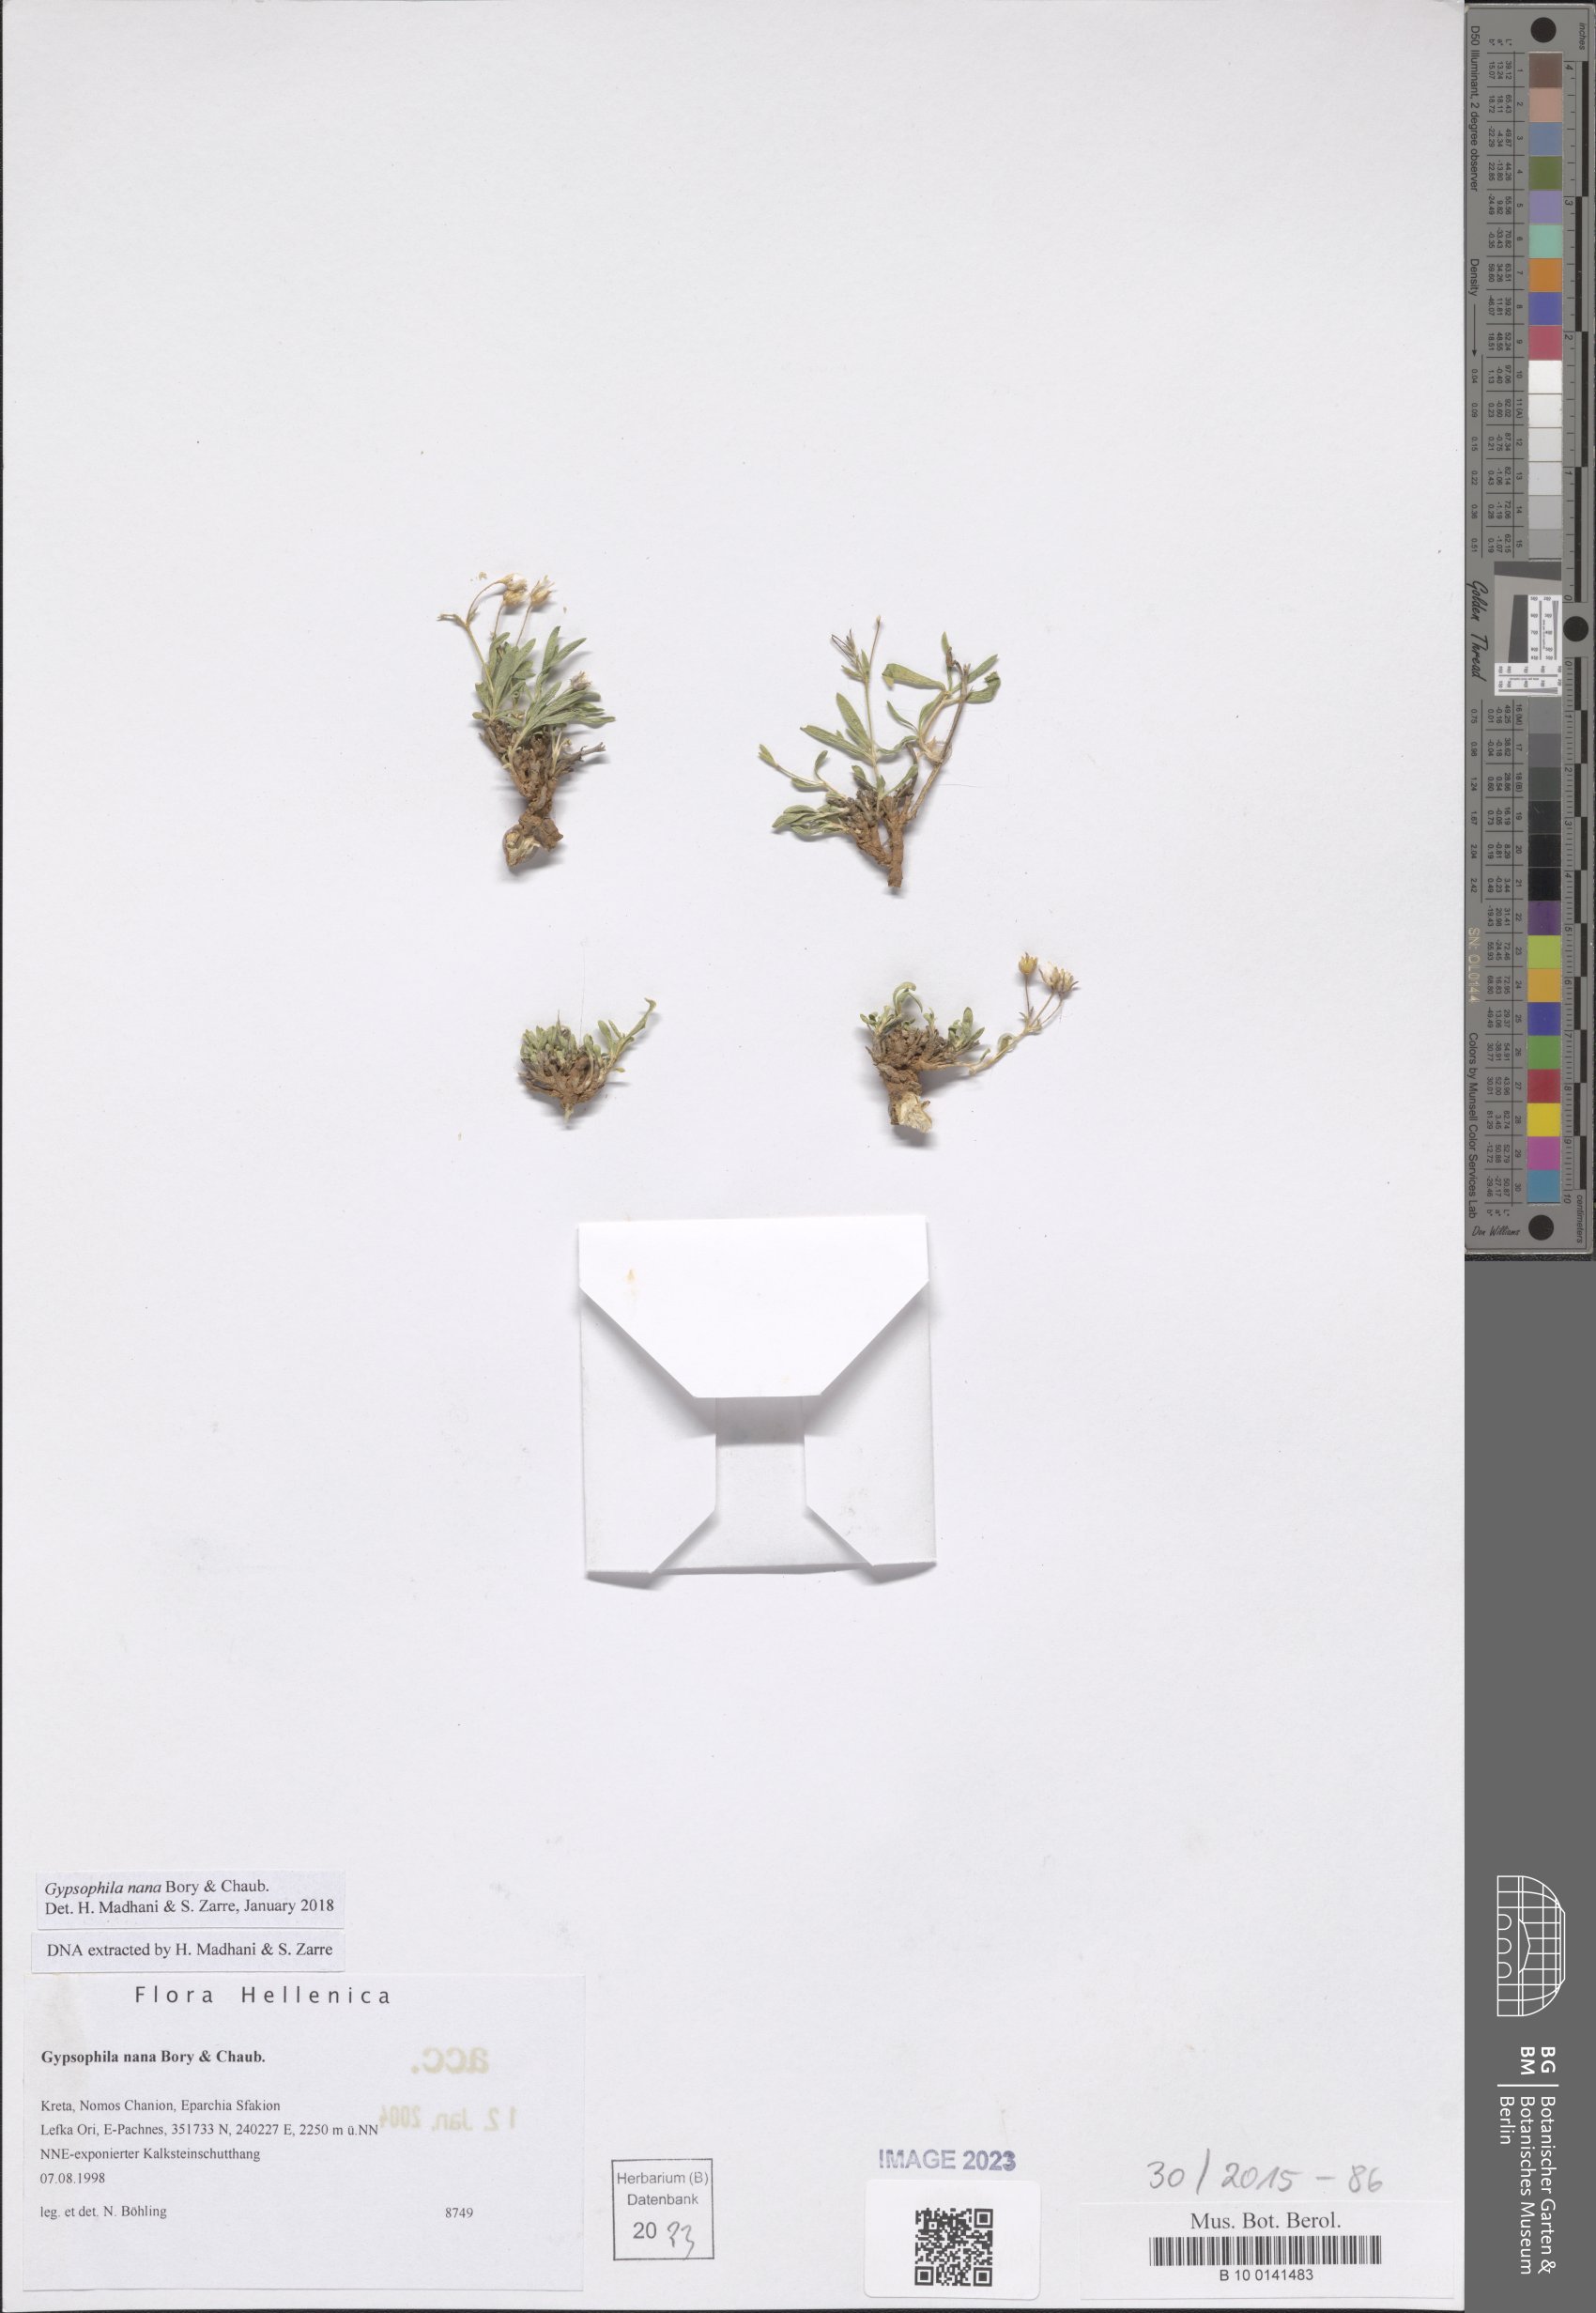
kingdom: Plantae
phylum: Tracheophyta
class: Magnoliopsida
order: Caryophyllales
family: Caryophyllaceae
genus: Gypsophila
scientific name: Gypsophila nana
